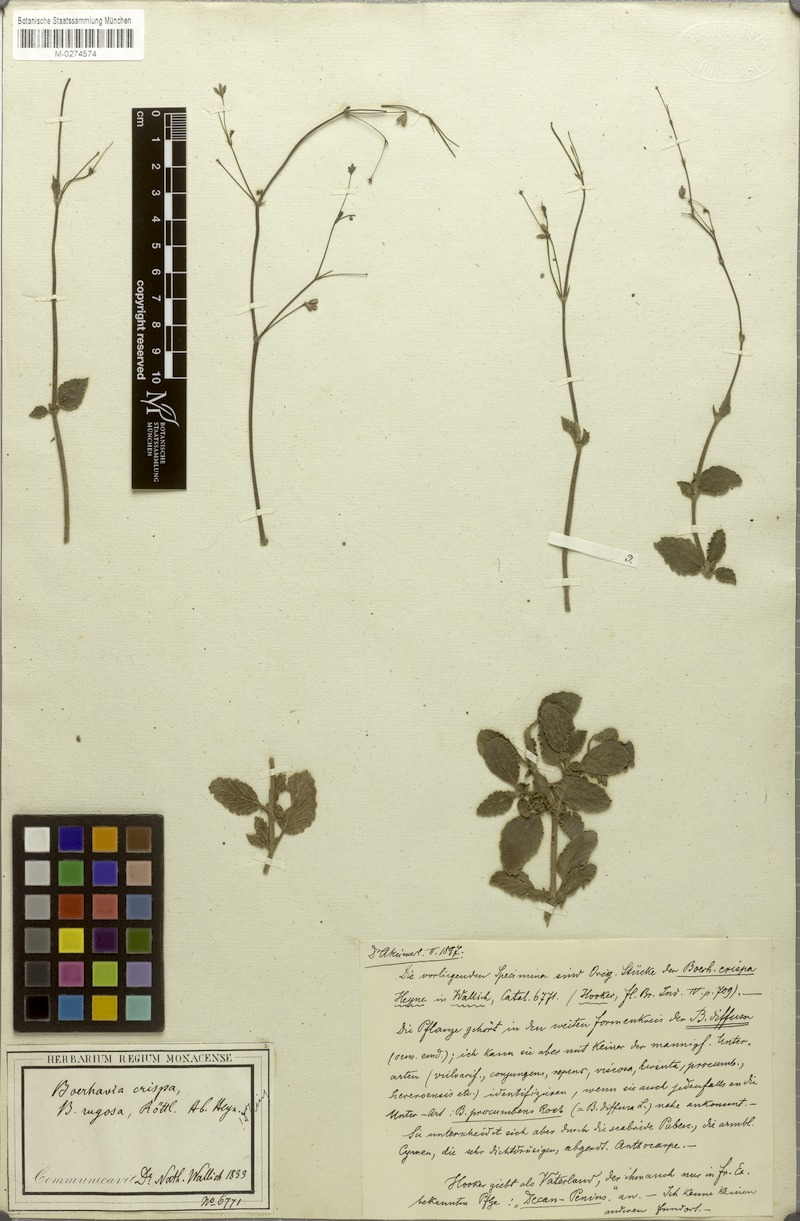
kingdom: Plantae
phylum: Tracheophyta
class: Magnoliopsida
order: Caryophyllales
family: Nyctaginaceae
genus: Boerhavia
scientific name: Boerhavia crispa
